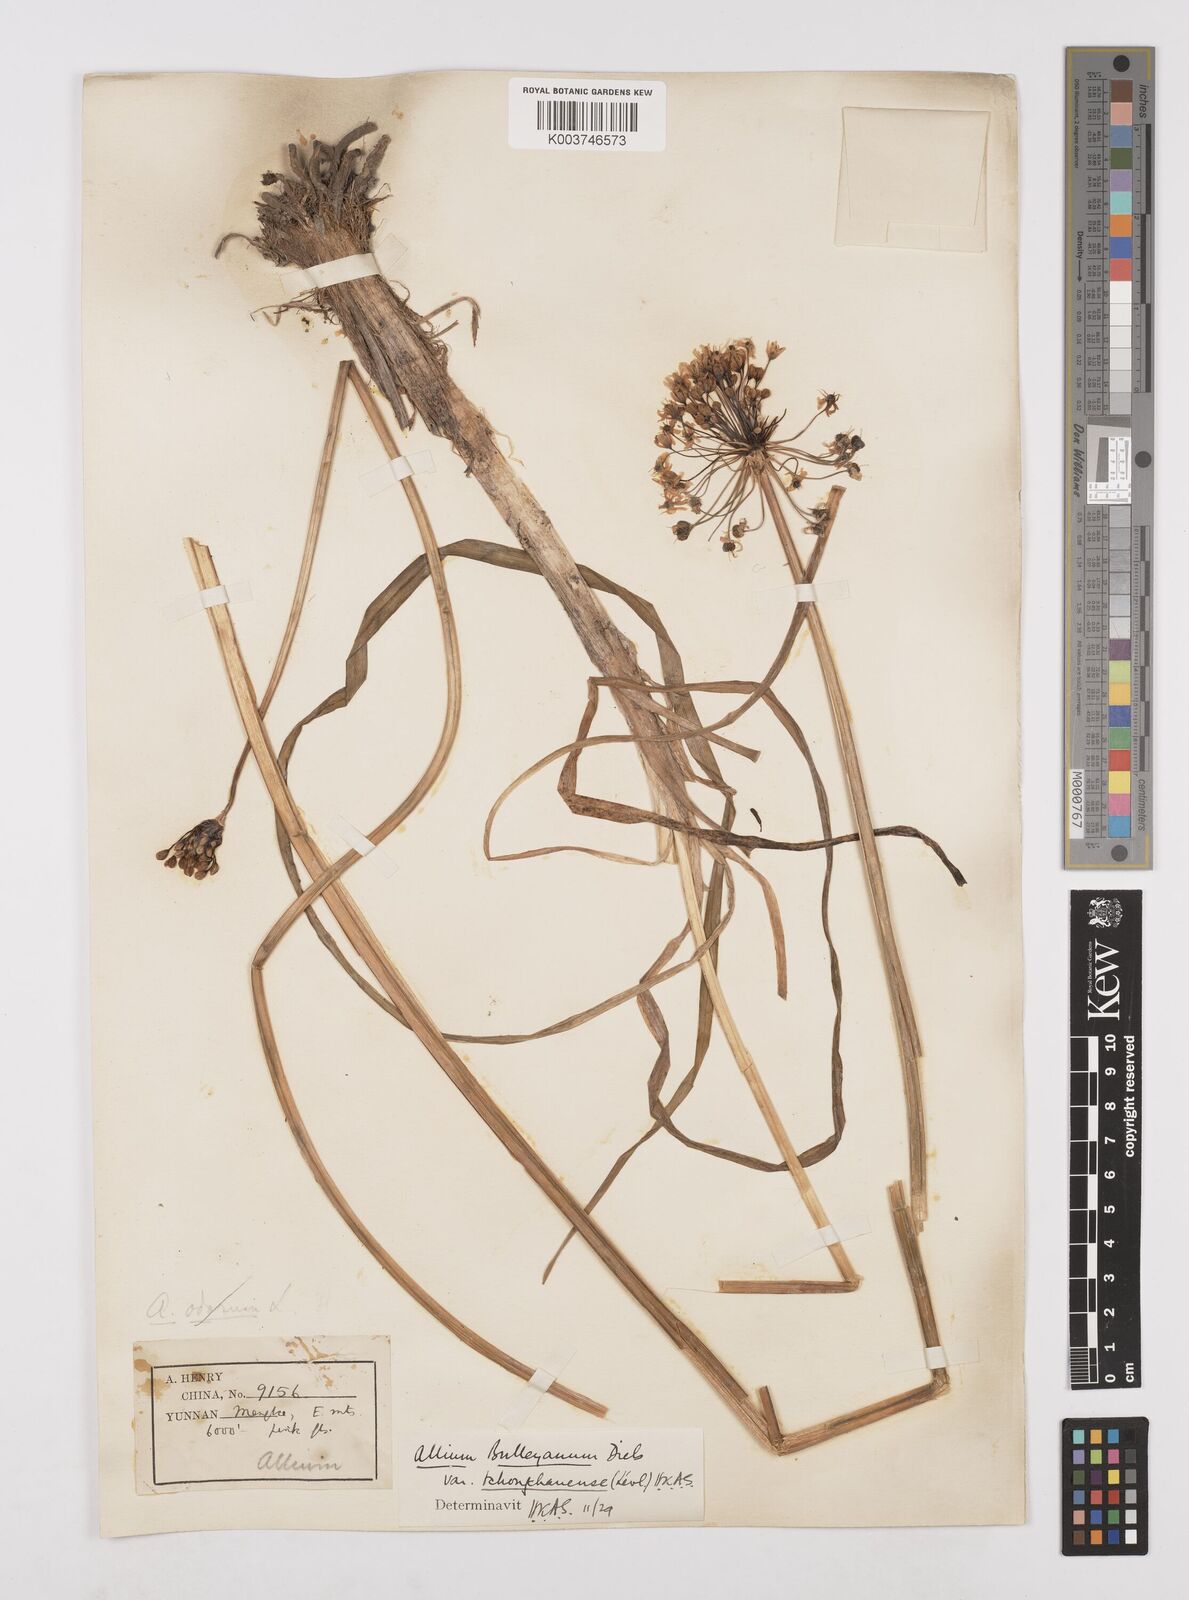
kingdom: Plantae
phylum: Tracheophyta
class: Liliopsida
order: Asparagales
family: Amaryllidaceae
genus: Allium
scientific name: Allium wallichii
